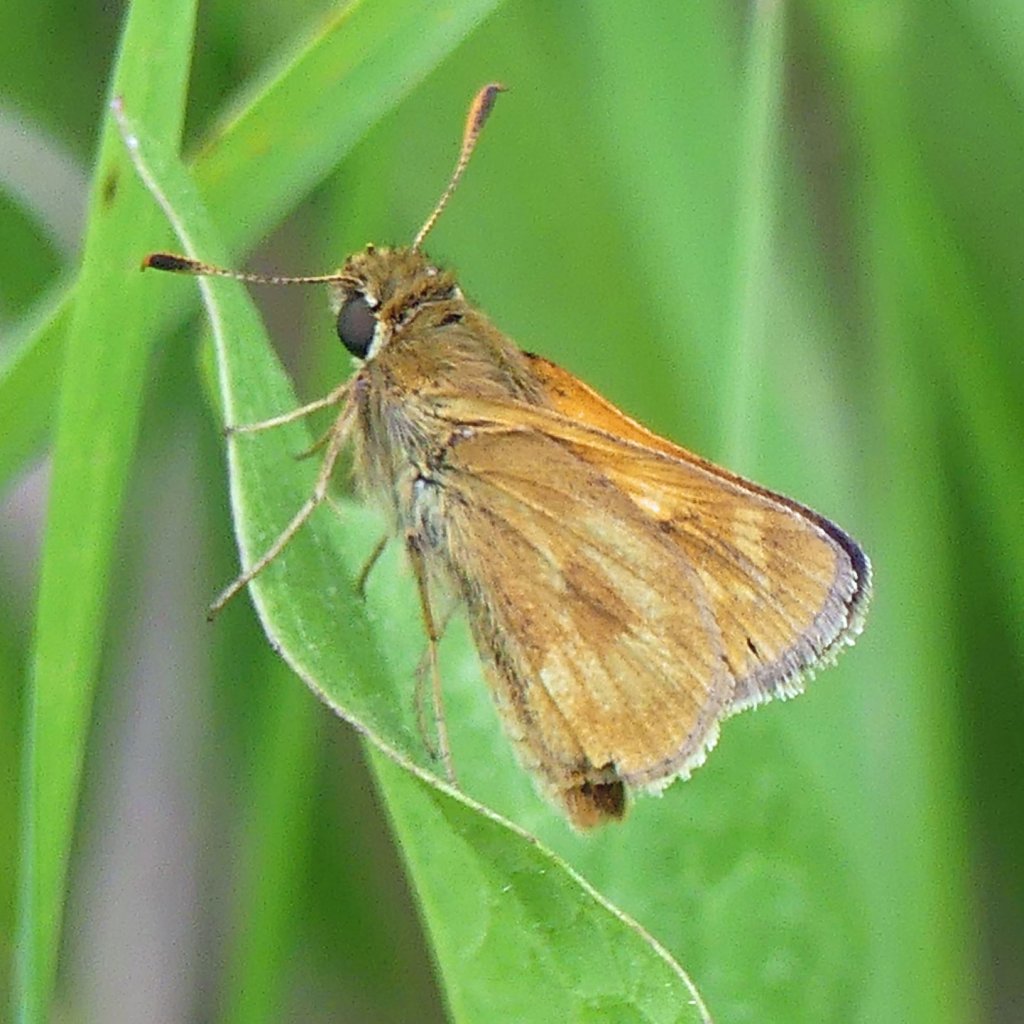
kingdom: Animalia
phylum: Arthropoda
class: Insecta
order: Lepidoptera
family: Hesperiidae
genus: Polites
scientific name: Polites
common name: Long Dash Skipper
